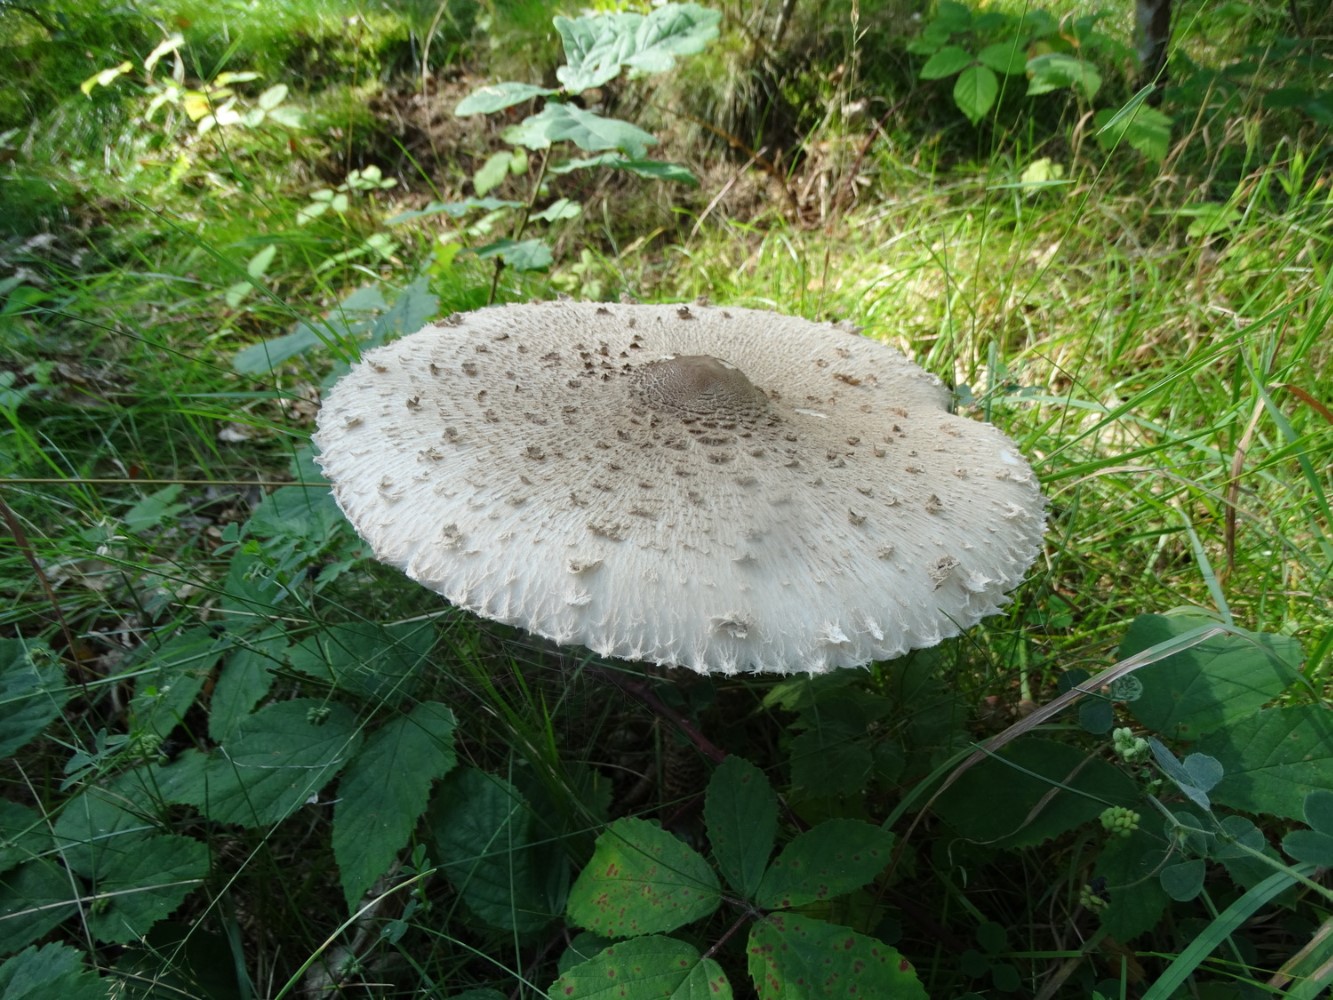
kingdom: Fungi
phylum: Basidiomycota
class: Agaricomycetes
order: Agaricales
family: Agaricaceae
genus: Macrolepiota
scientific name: Macrolepiota procera
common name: stor kæmpeparasolhat
